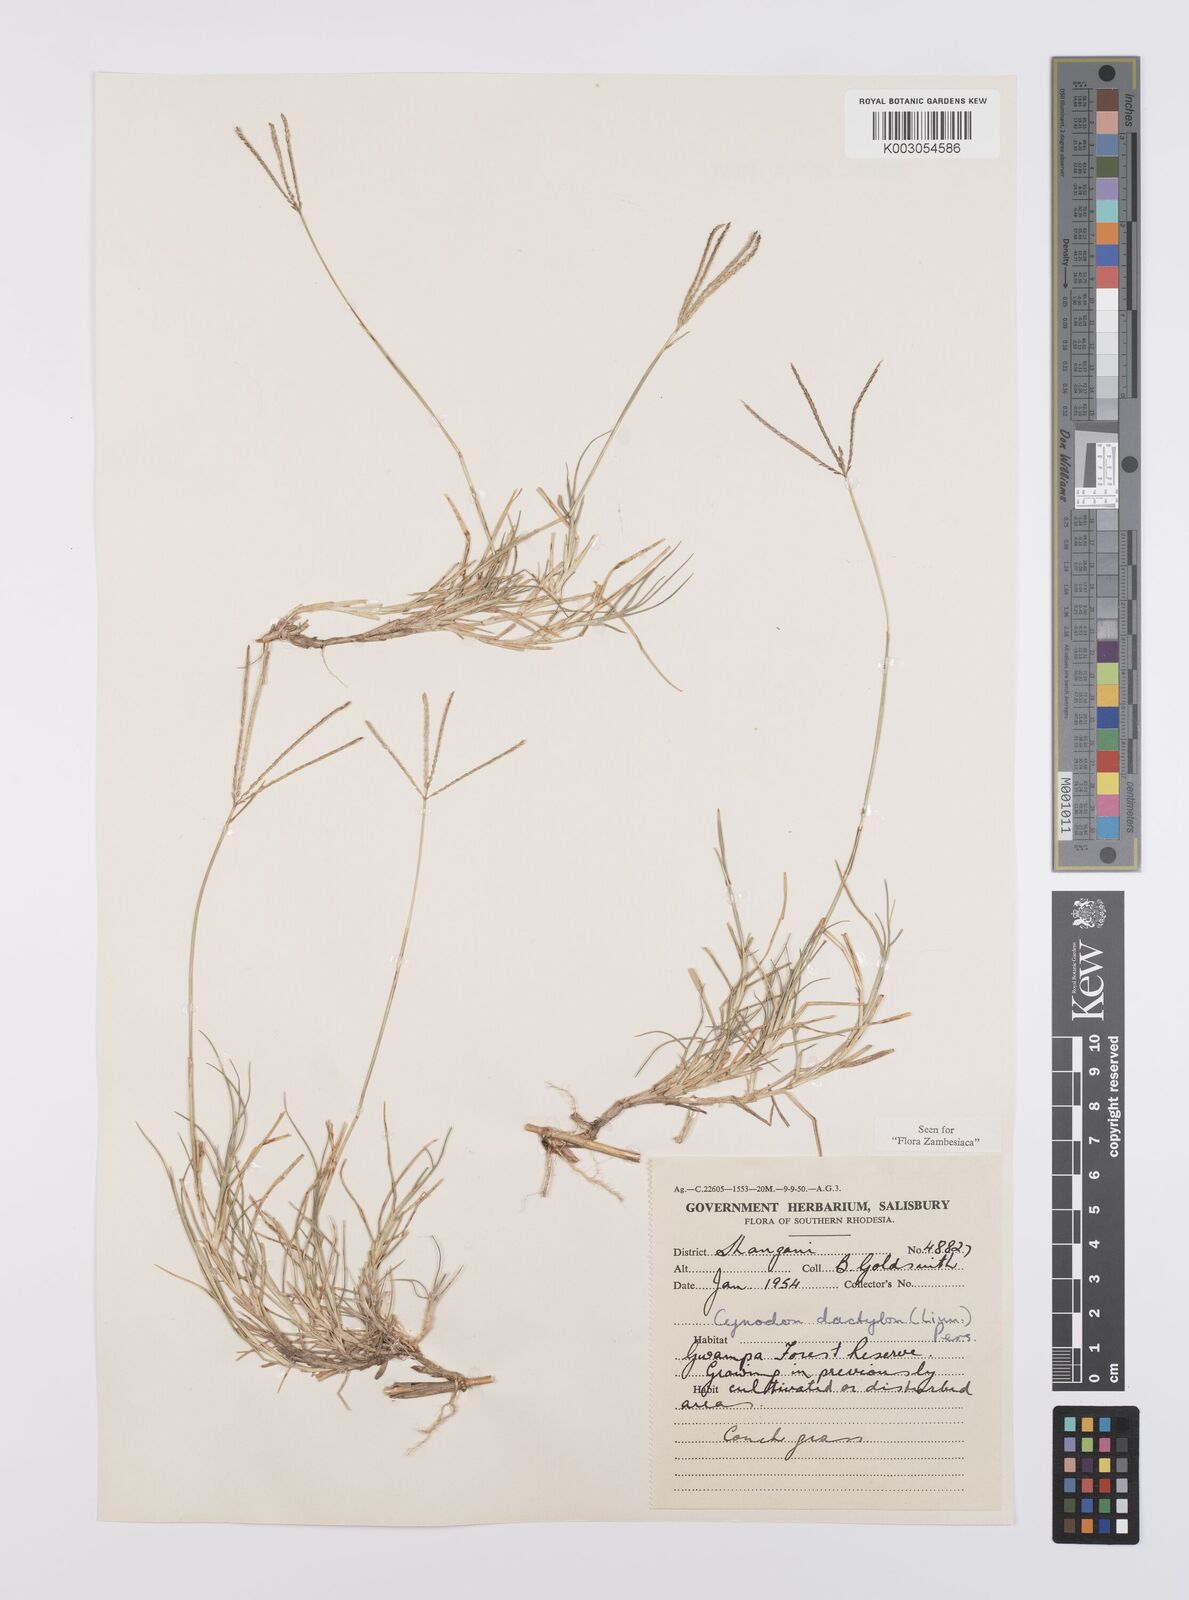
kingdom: Plantae
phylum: Tracheophyta
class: Liliopsida
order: Poales
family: Poaceae
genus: Cynodon
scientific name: Cynodon dactylon
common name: Bermuda grass
